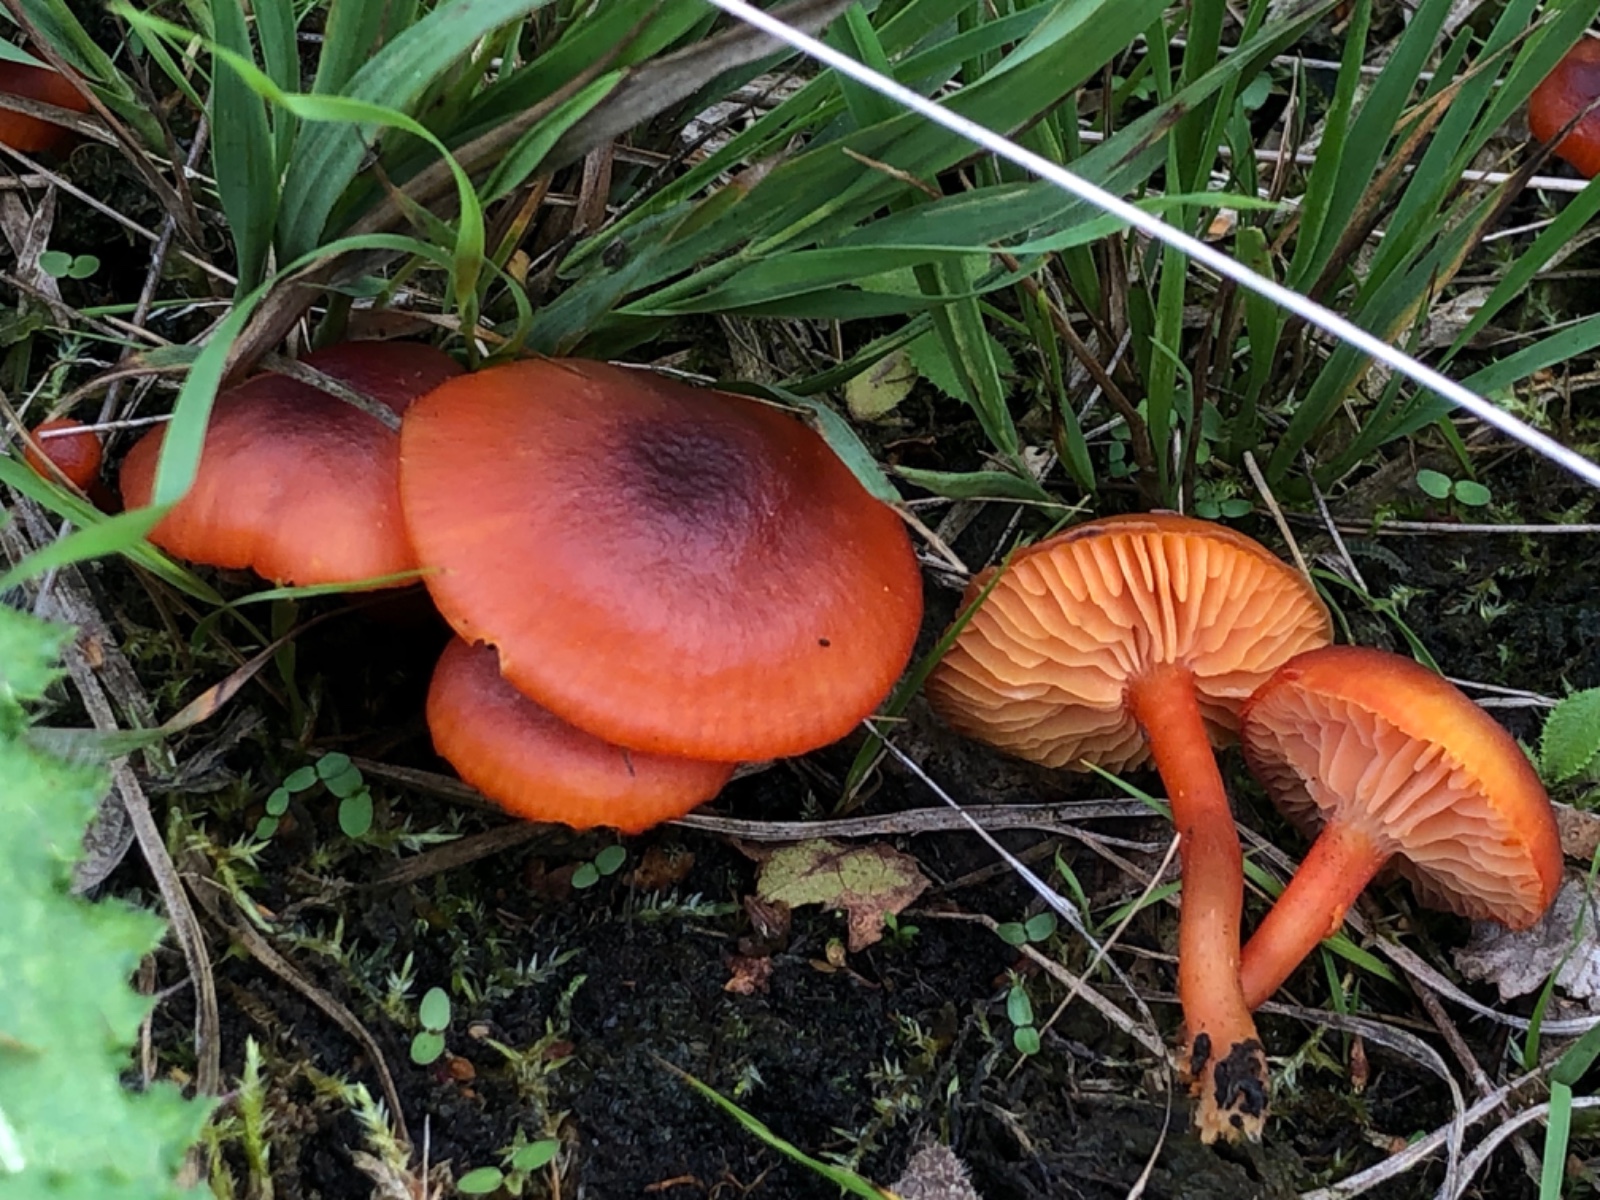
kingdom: Fungi
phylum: Basidiomycota
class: Agaricomycetes
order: Agaricales
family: Hygrophoraceae
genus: Hygrocybe
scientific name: Hygrocybe phaeococcinea
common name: sortdugget vokshat
